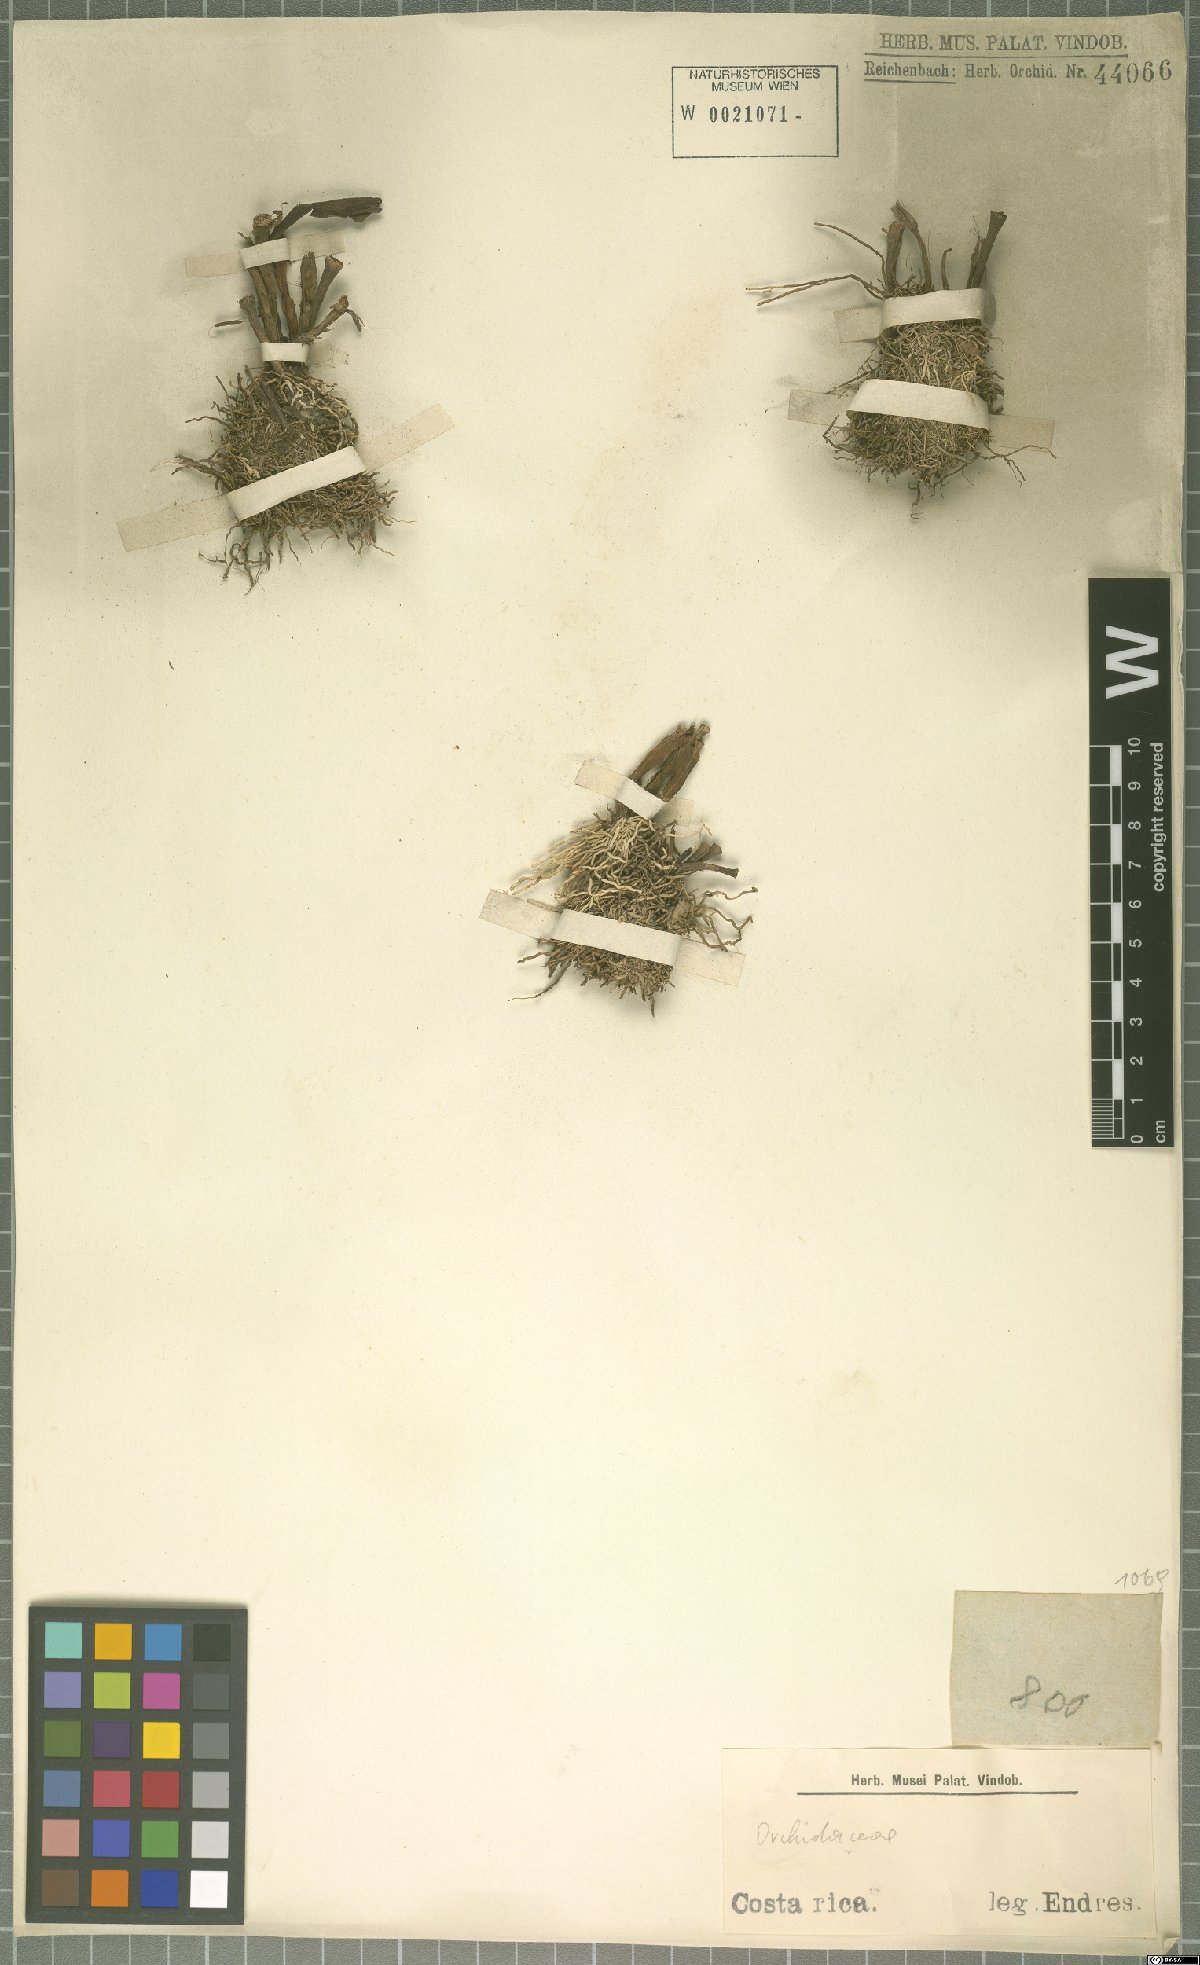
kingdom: Plantae
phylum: Tracheophyta
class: Liliopsida
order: Asparagales
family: Orchidaceae
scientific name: Orchidaceae
